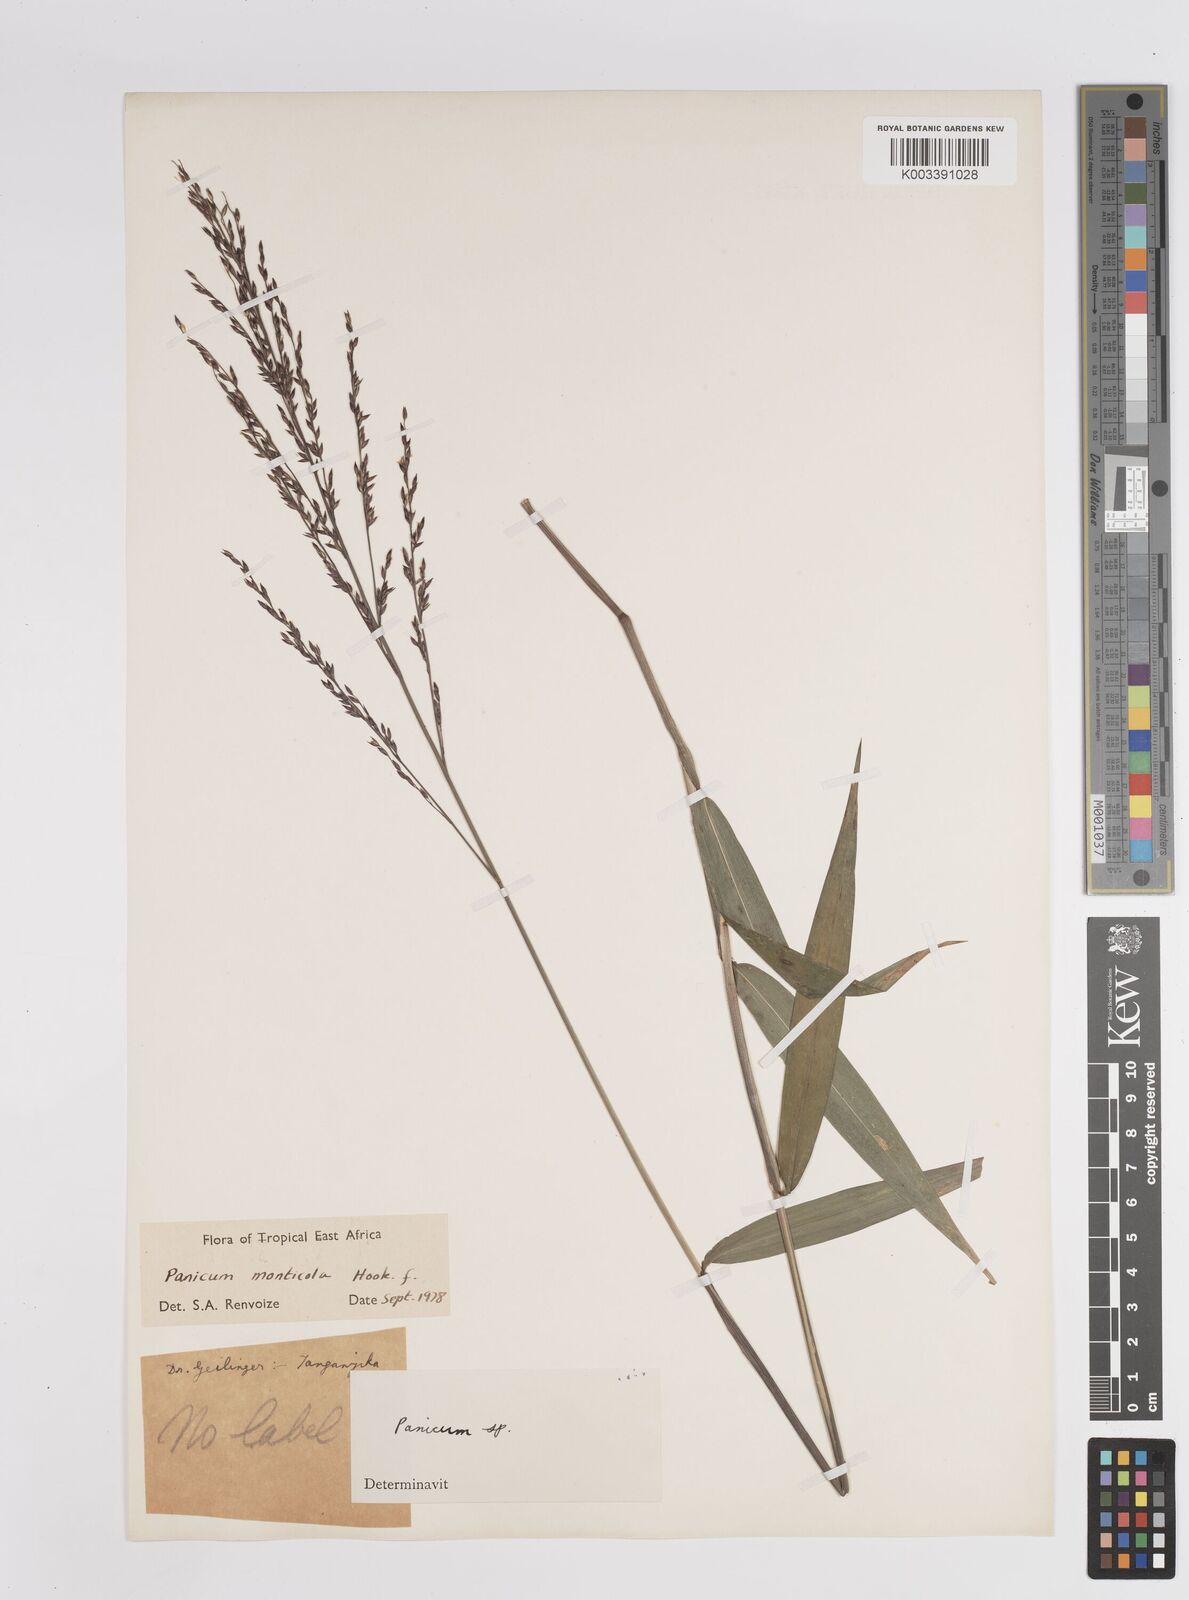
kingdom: Plantae
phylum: Tracheophyta
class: Liliopsida
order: Poales
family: Poaceae
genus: Panicum
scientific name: Panicum monticola
